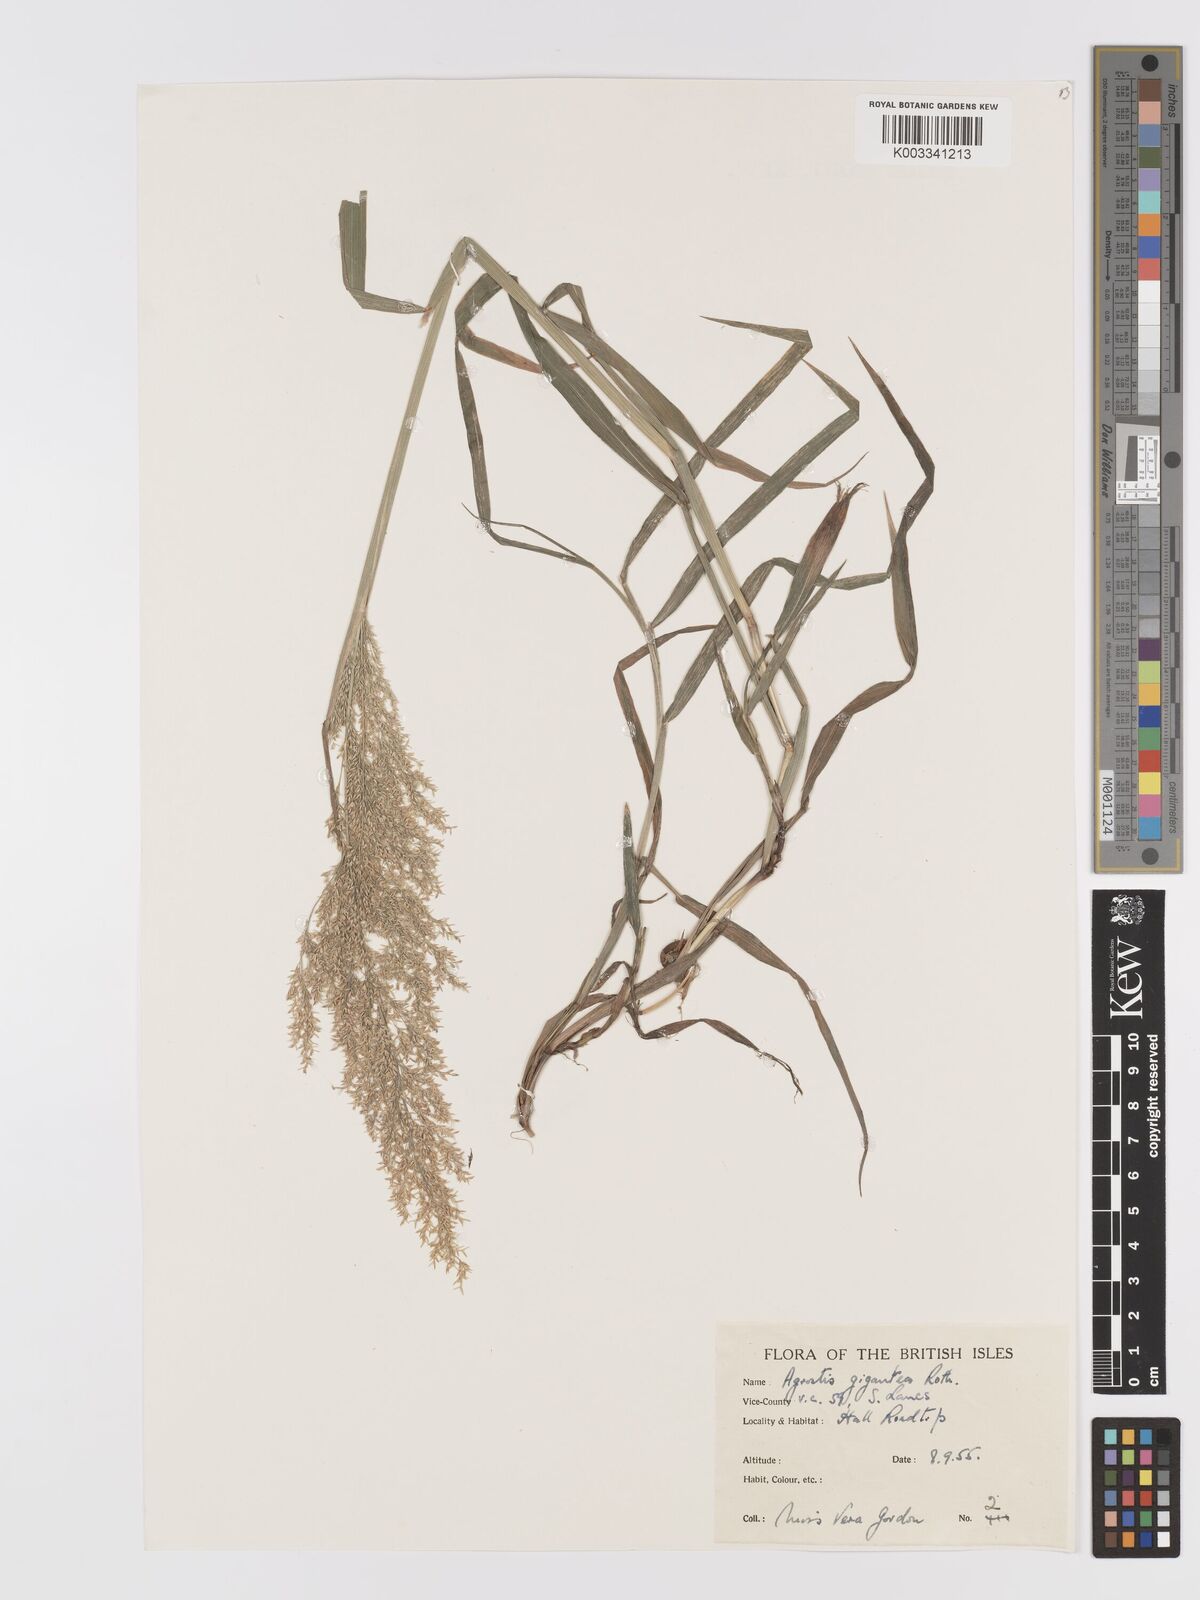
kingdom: Plantae
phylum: Tracheophyta
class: Liliopsida
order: Poales
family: Poaceae
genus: Agrostis
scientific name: Agrostis gigantea
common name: Black bent
